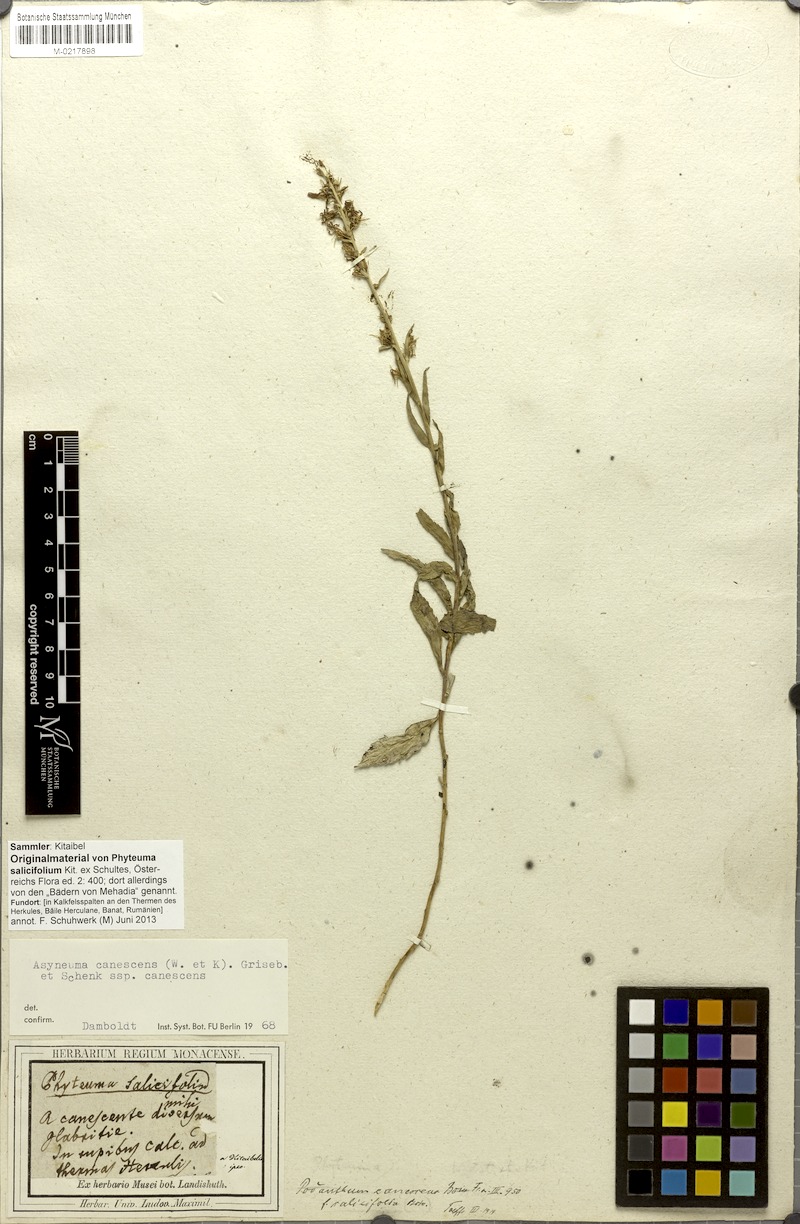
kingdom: Plantae
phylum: Tracheophyta
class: Magnoliopsida
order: Asterales
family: Campanulaceae
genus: Asyneuma
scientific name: Asyneuma canescens
